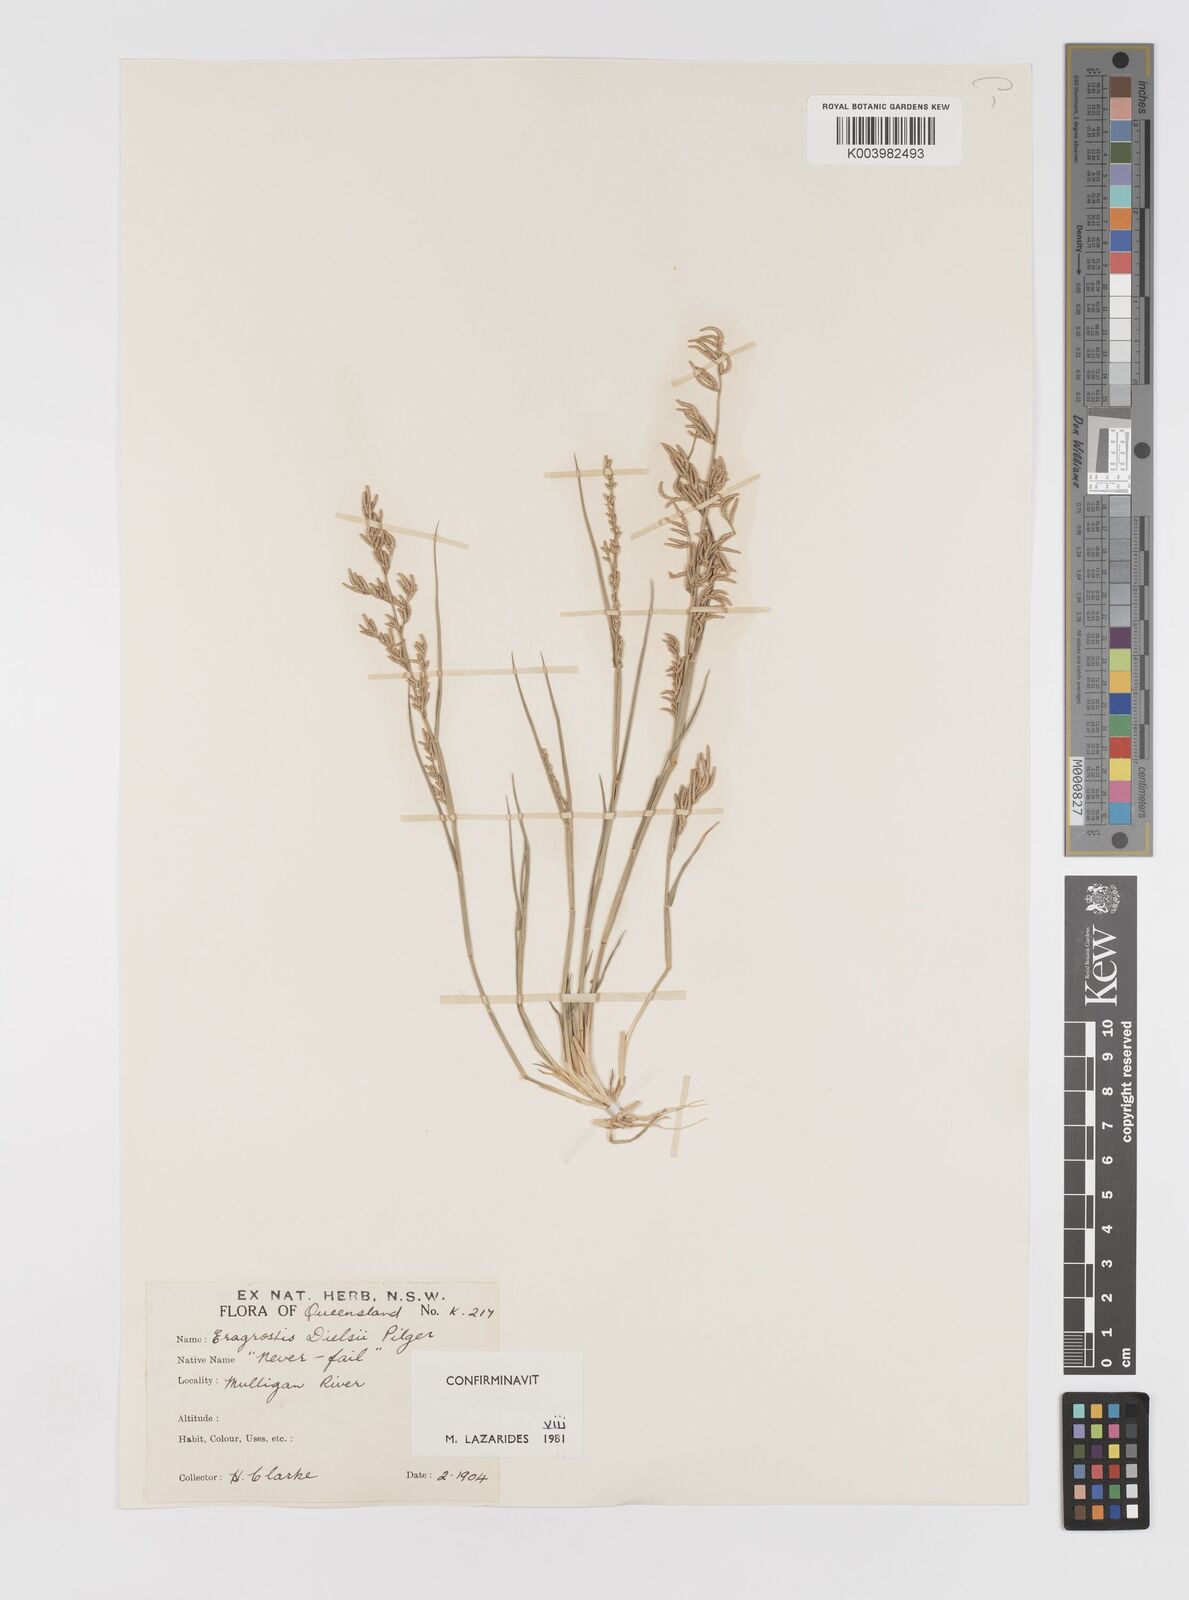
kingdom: Plantae
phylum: Tracheophyta
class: Liliopsida
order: Poales
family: Poaceae
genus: Eragrostis
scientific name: Eragrostis dielsii
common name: Lovegrass
